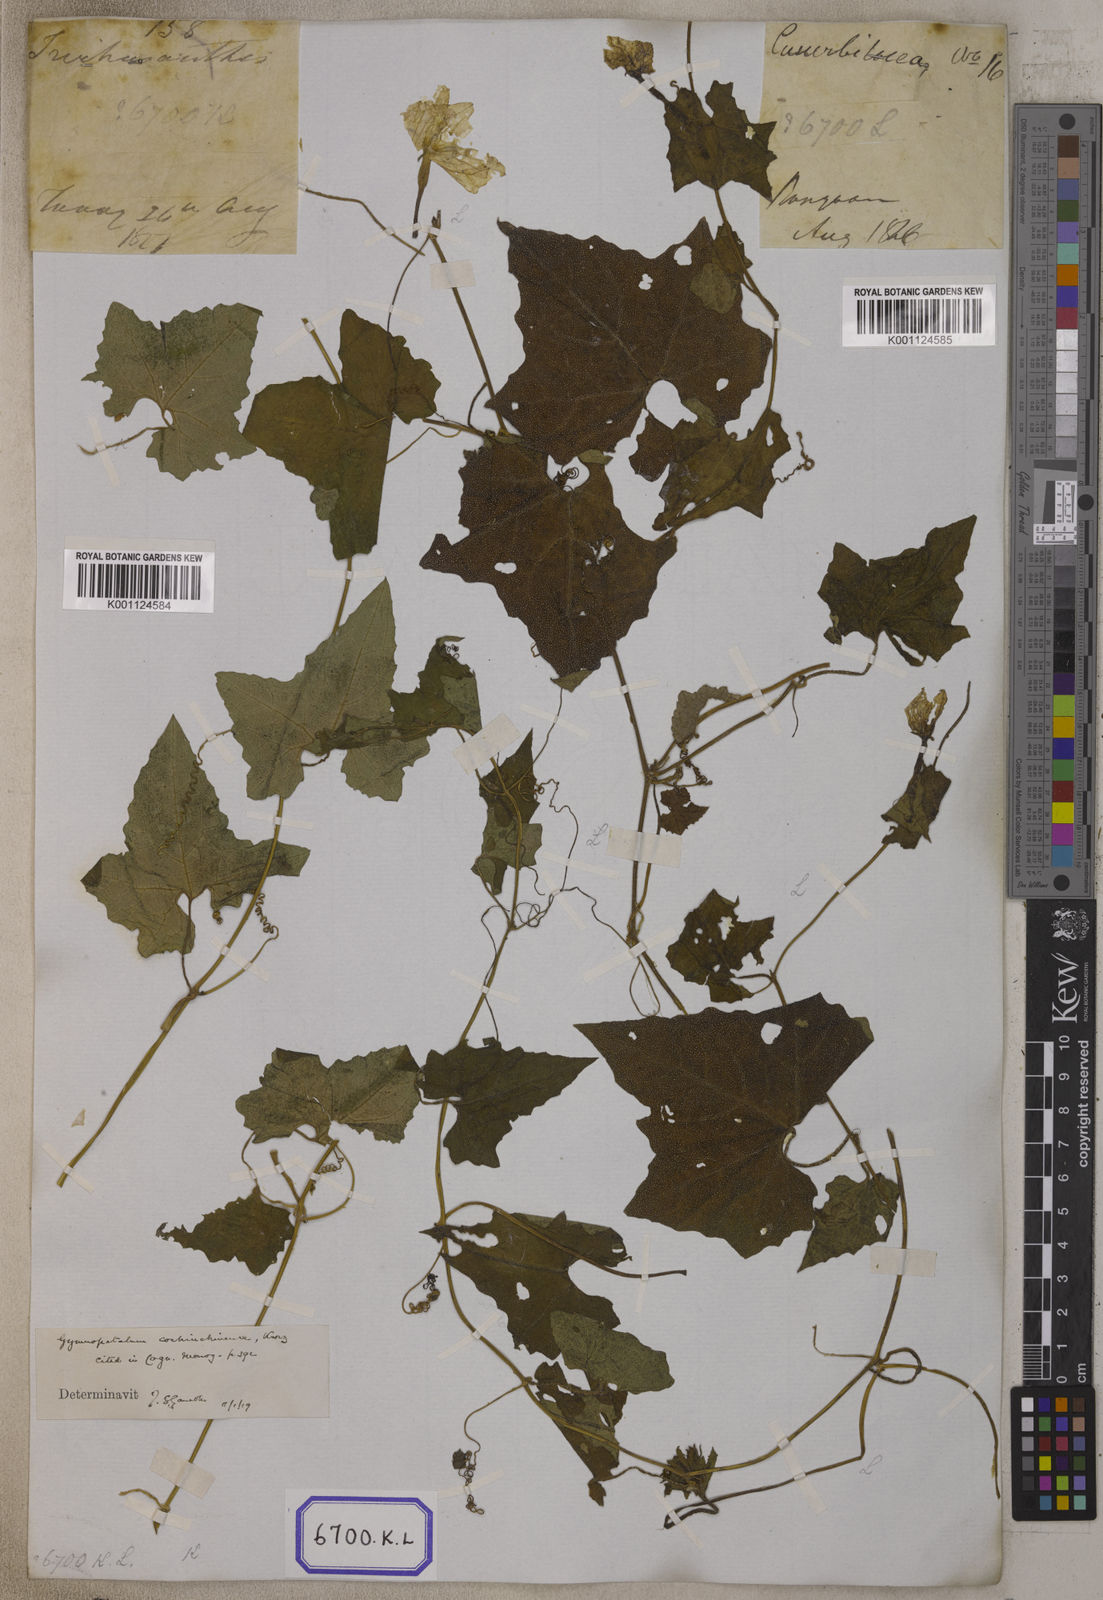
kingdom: Plantae
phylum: Tracheophyta
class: Magnoliopsida
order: Cucurbitales
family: Cucurbitaceae
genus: Bryonia
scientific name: Bryonia
